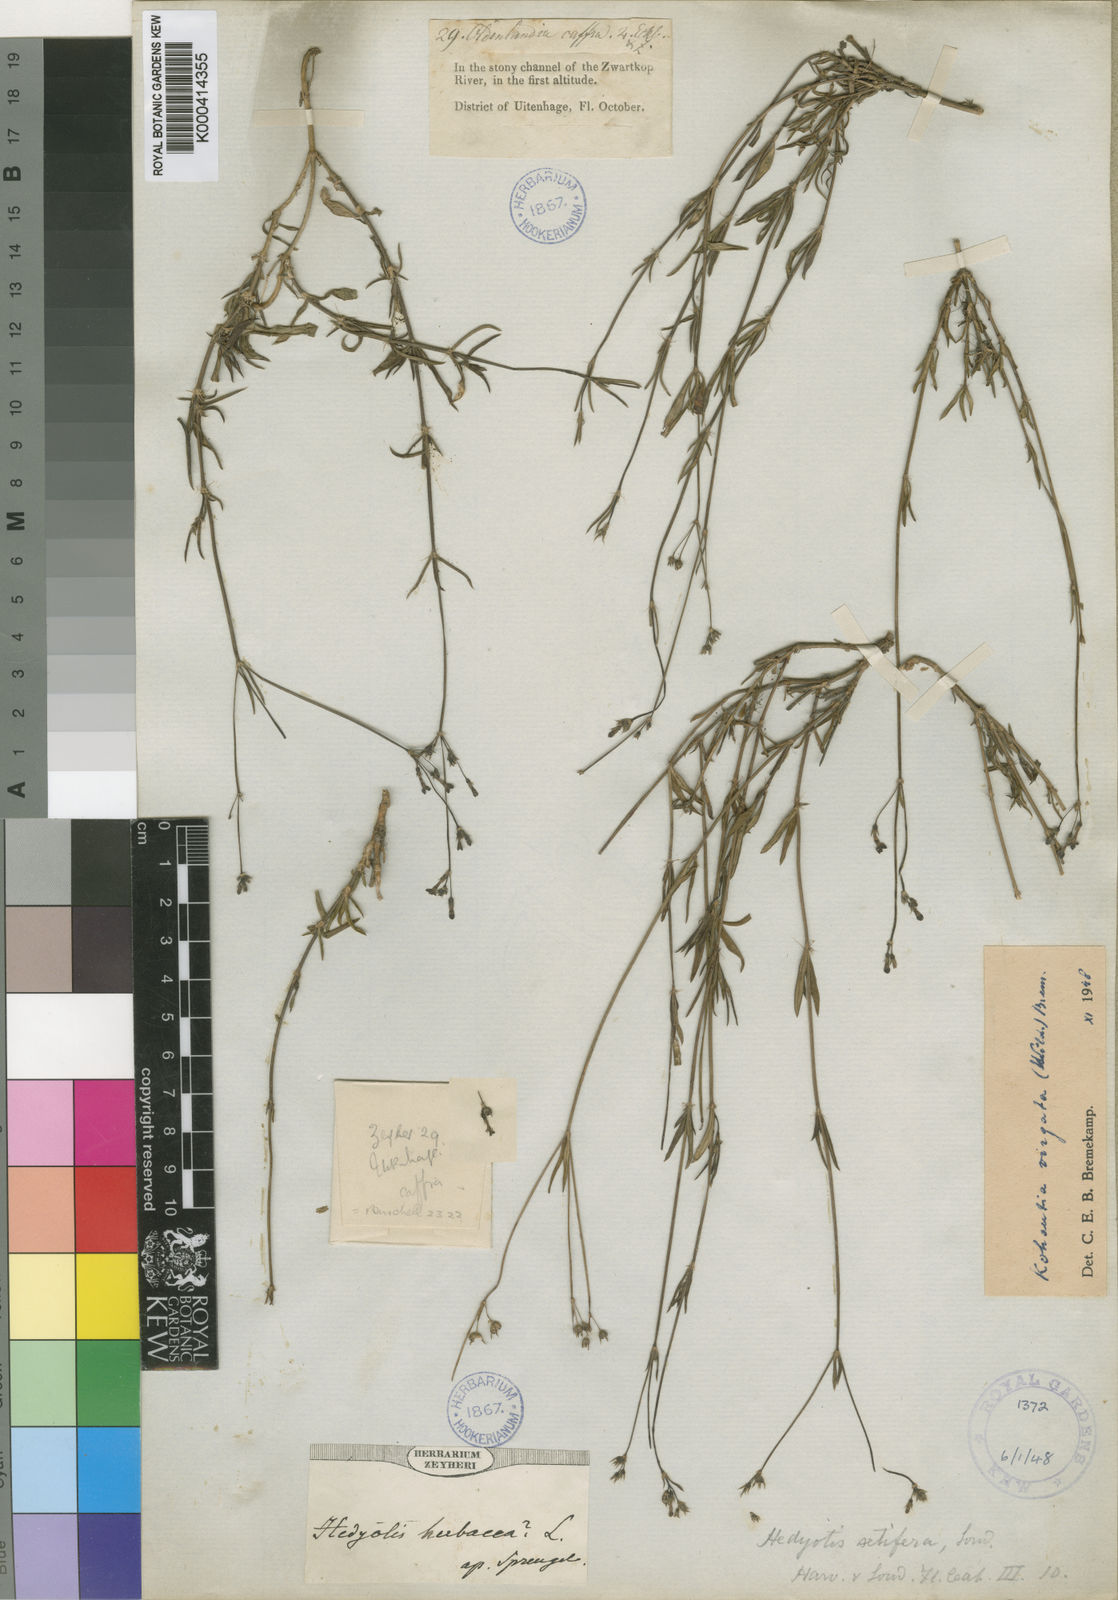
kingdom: Plantae
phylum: Tracheophyta
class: Magnoliopsida
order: Gentianales
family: Rubiaceae
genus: Cordylostigma
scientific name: Cordylostigma virgatum
